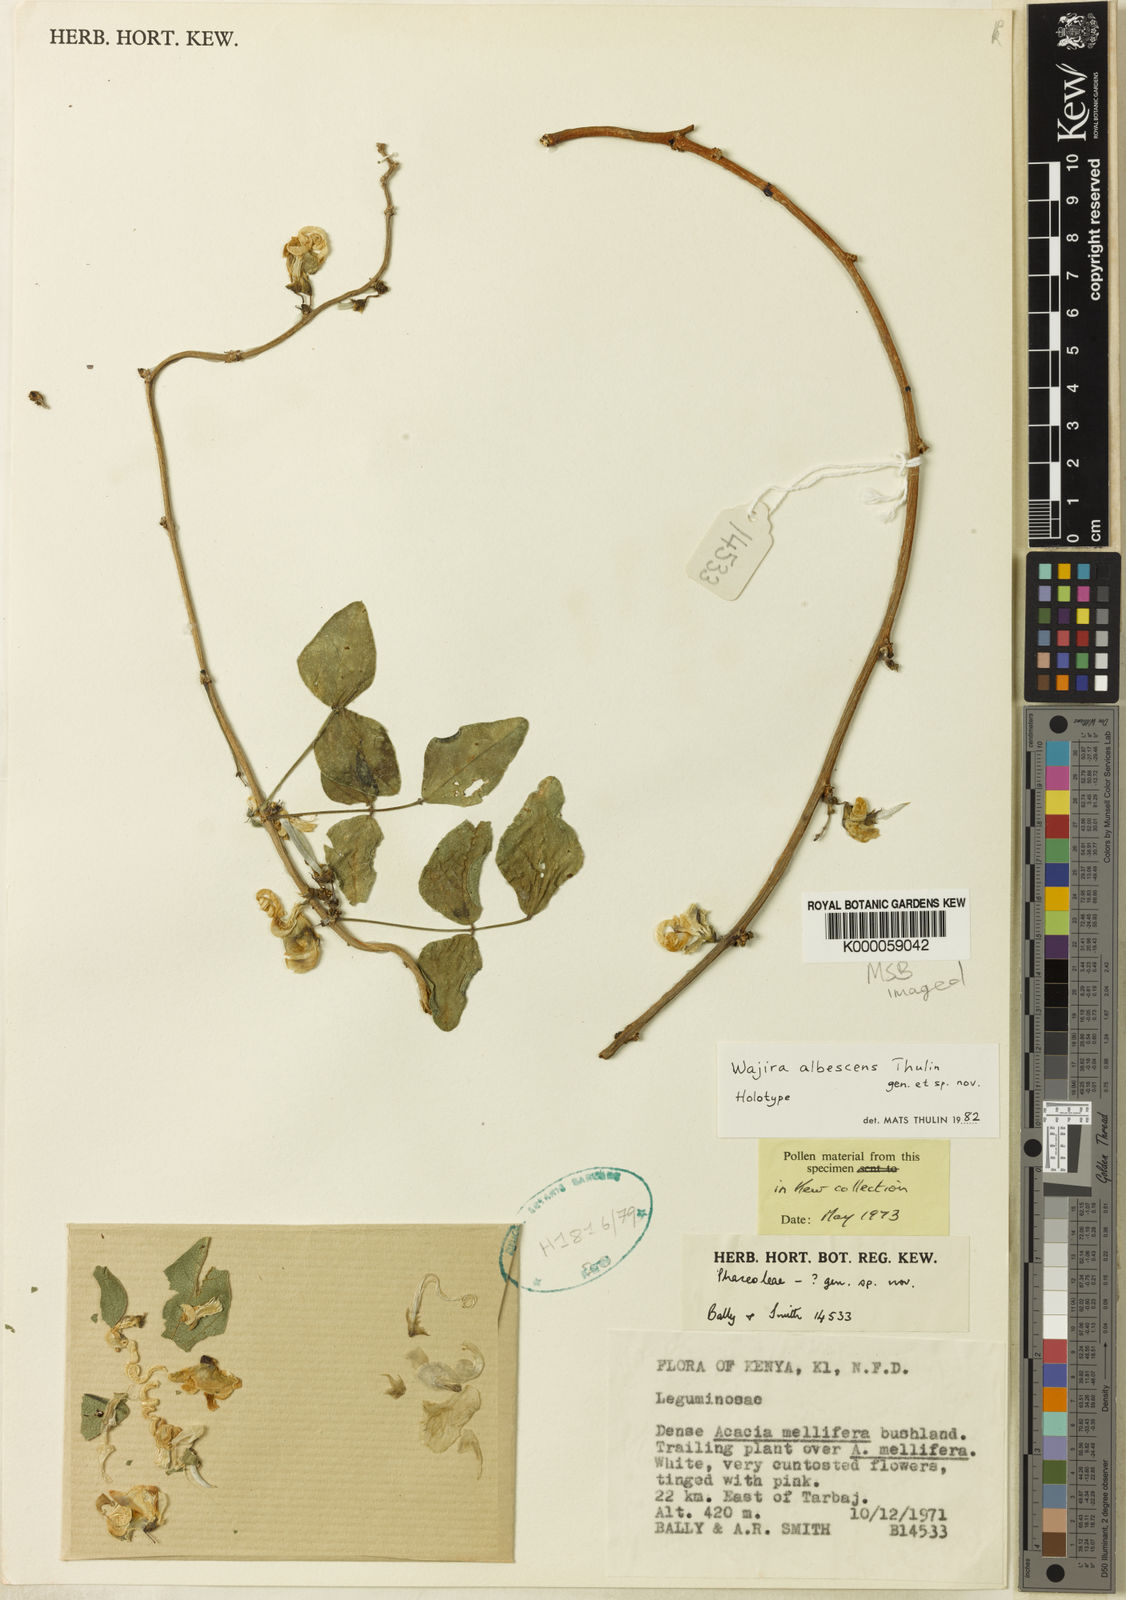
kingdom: Plantae
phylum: Tracheophyta
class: Magnoliopsida
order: Fabales
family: Fabaceae
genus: Wajira
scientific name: Wajira albescens
